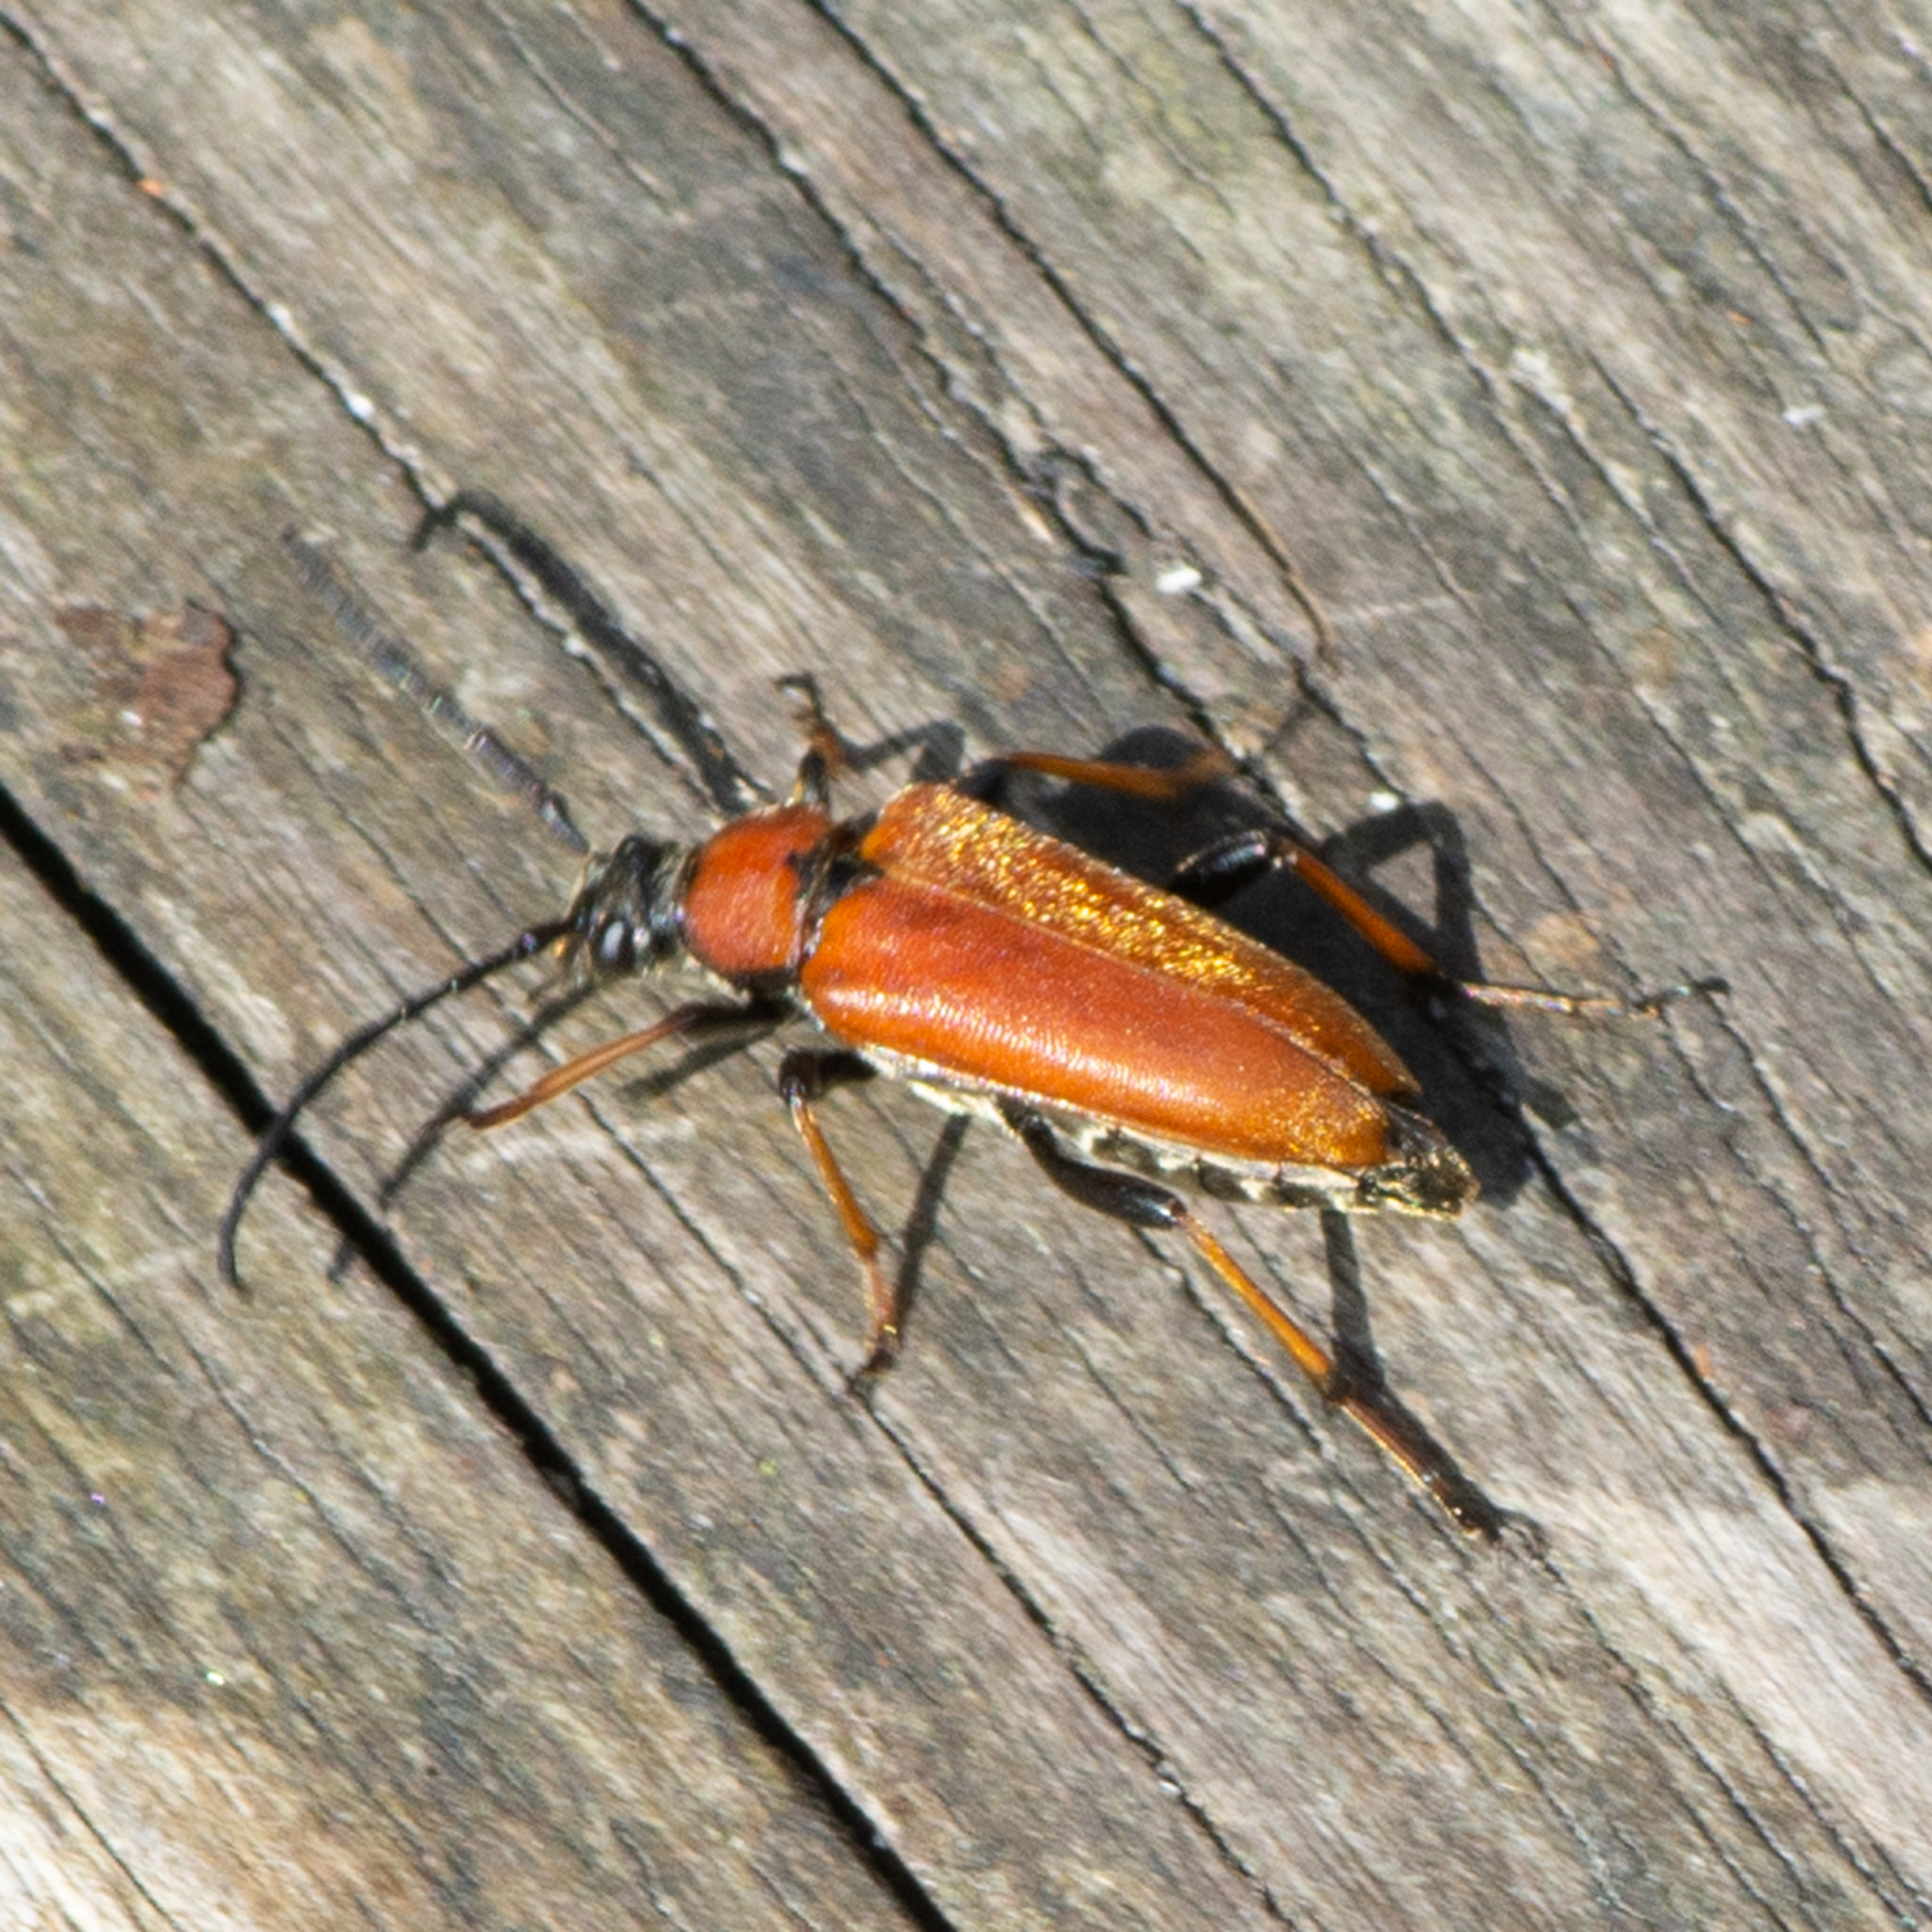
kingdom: Animalia
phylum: Arthropoda
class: Insecta
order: Coleoptera
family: Cerambycidae
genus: Stictoleptura
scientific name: Stictoleptura rubra
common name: Rød blomsterbuk
